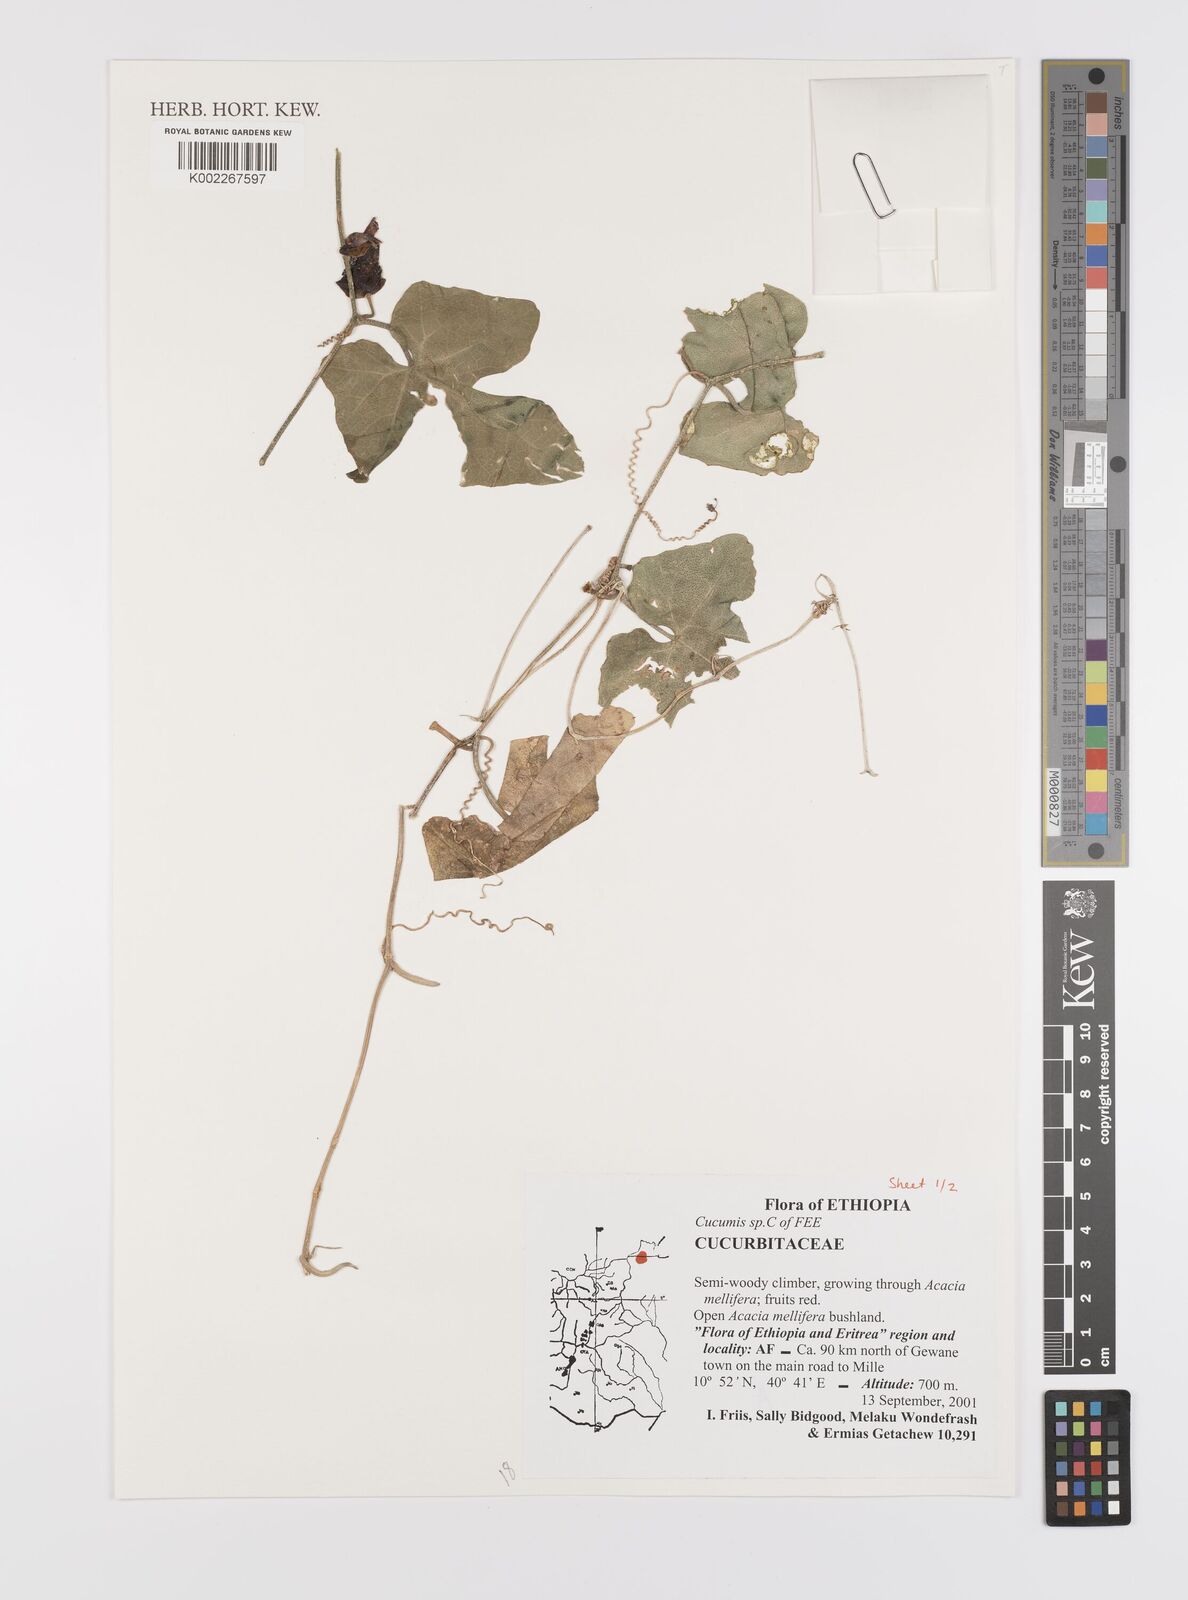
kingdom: Plantae
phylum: Tracheophyta
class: Magnoliopsida
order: Cucurbitales
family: Cucurbitaceae
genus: Cucumis
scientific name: Cucumis
